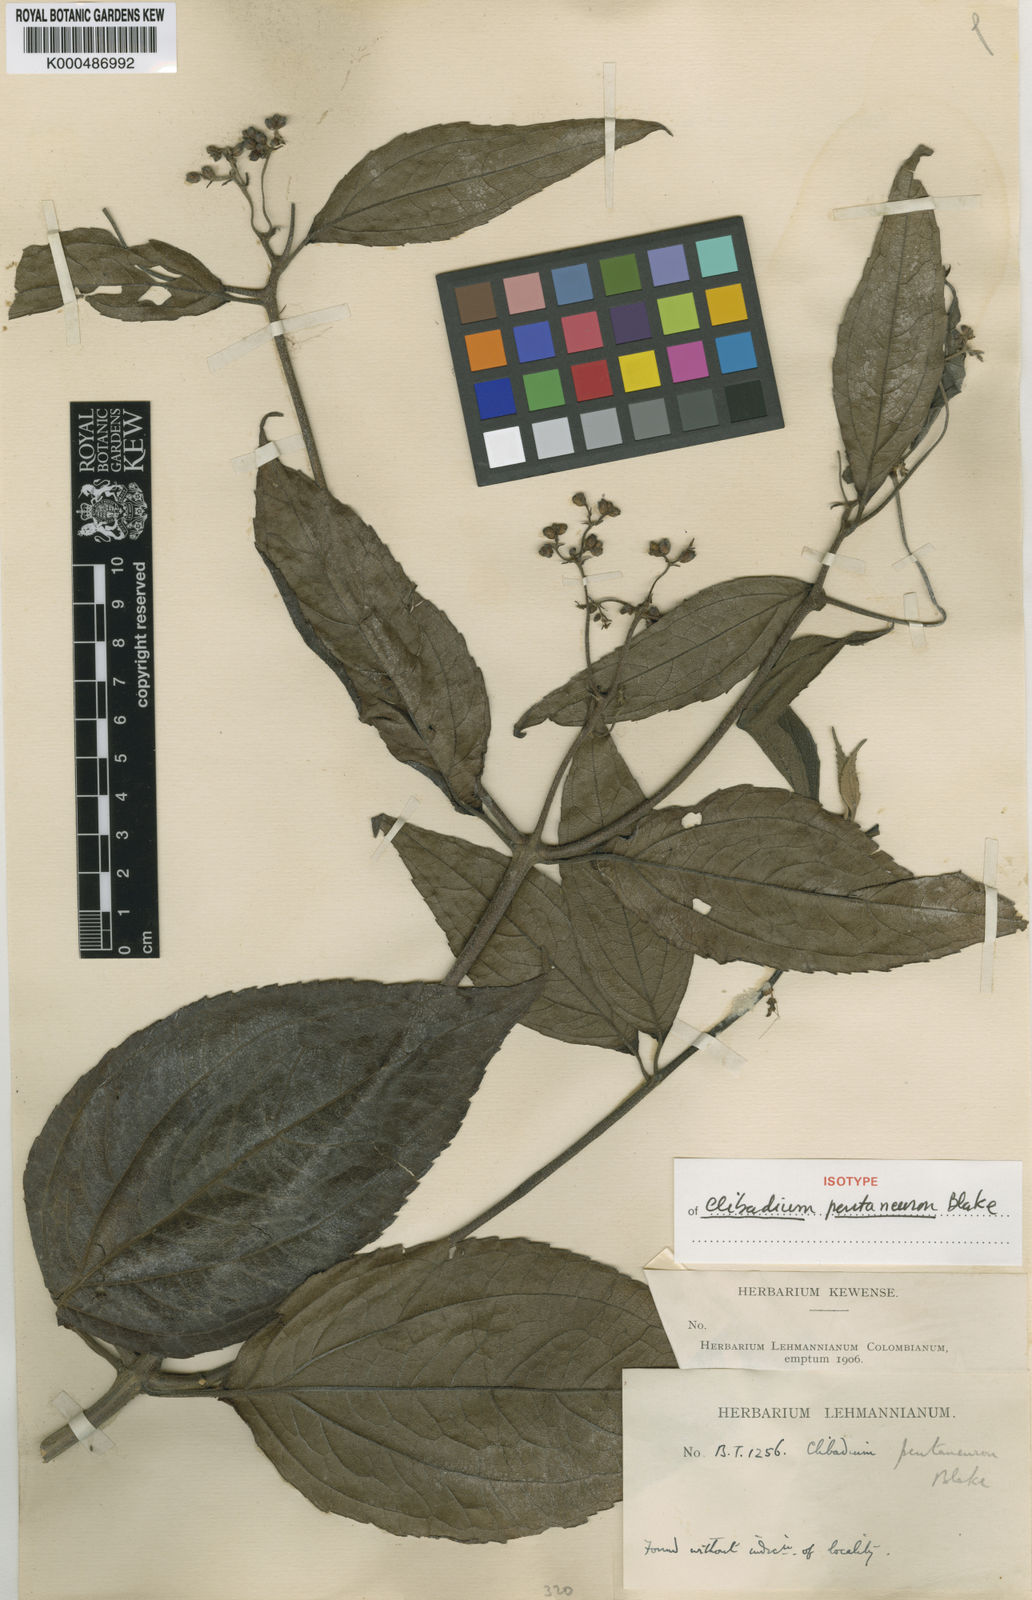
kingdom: Plantae
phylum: Tracheophyta
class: Magnoliopsida
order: Asterales
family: Asteraceae
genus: Clibadium
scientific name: Clibadium pentaneuron
